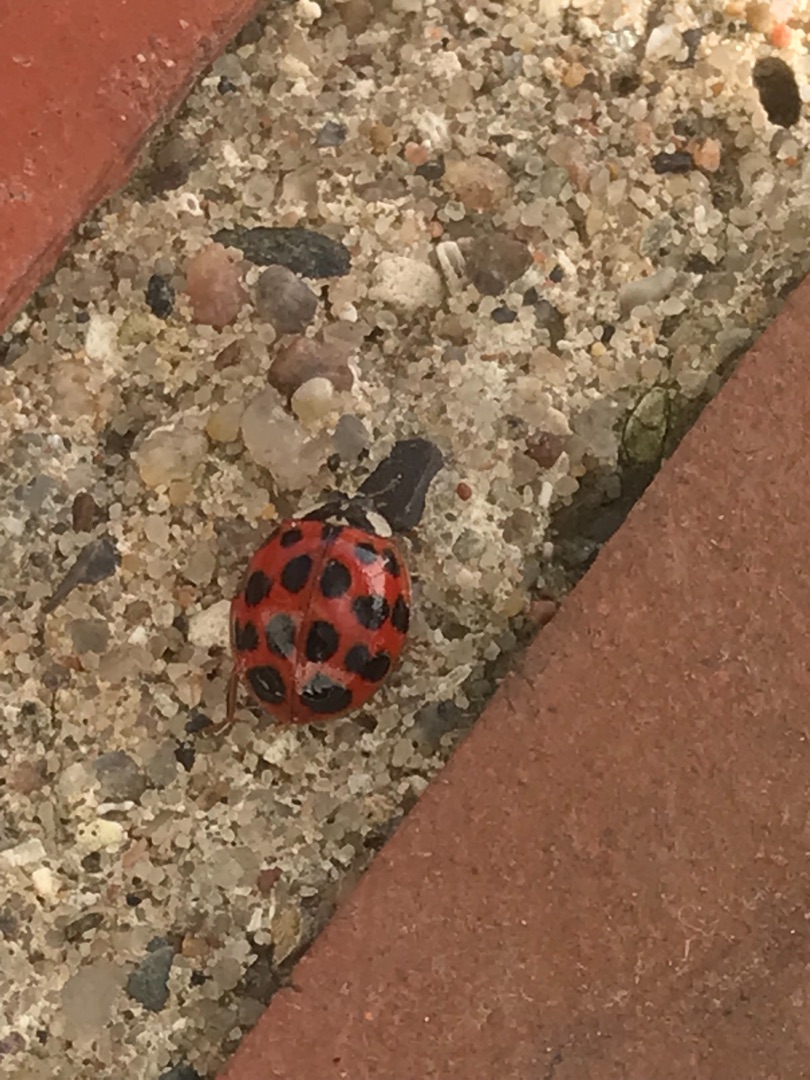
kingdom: Animalia
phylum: Arthropoda
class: Insecta
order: Coleoptera
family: Coccinellidae
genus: Harmonia
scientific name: Harmonia axyridis
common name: Harlekinmariehøne
